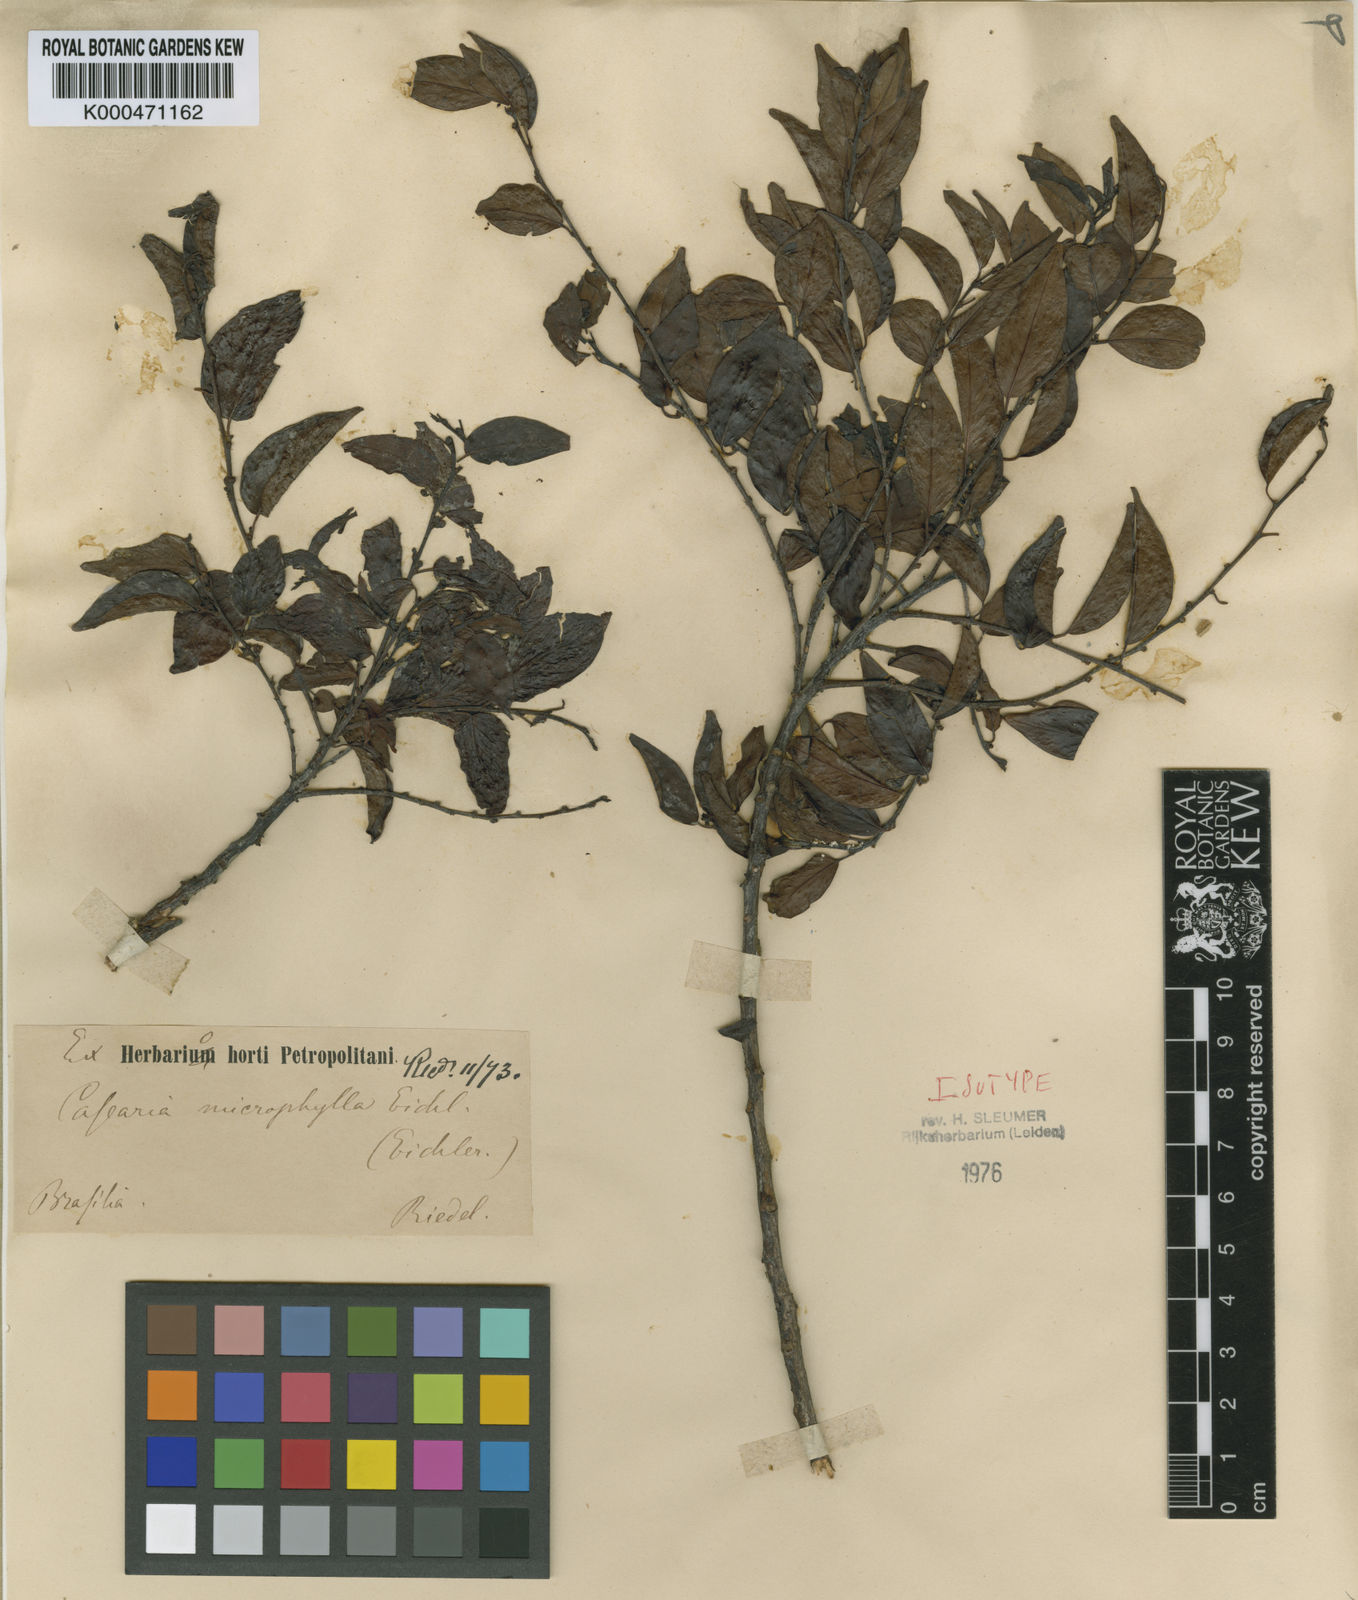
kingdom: Plantae
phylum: Tracheophyta
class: Magnoliopsida
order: Malpighiales
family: Salicaceae
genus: Casearia
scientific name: Casearia eichleriana
